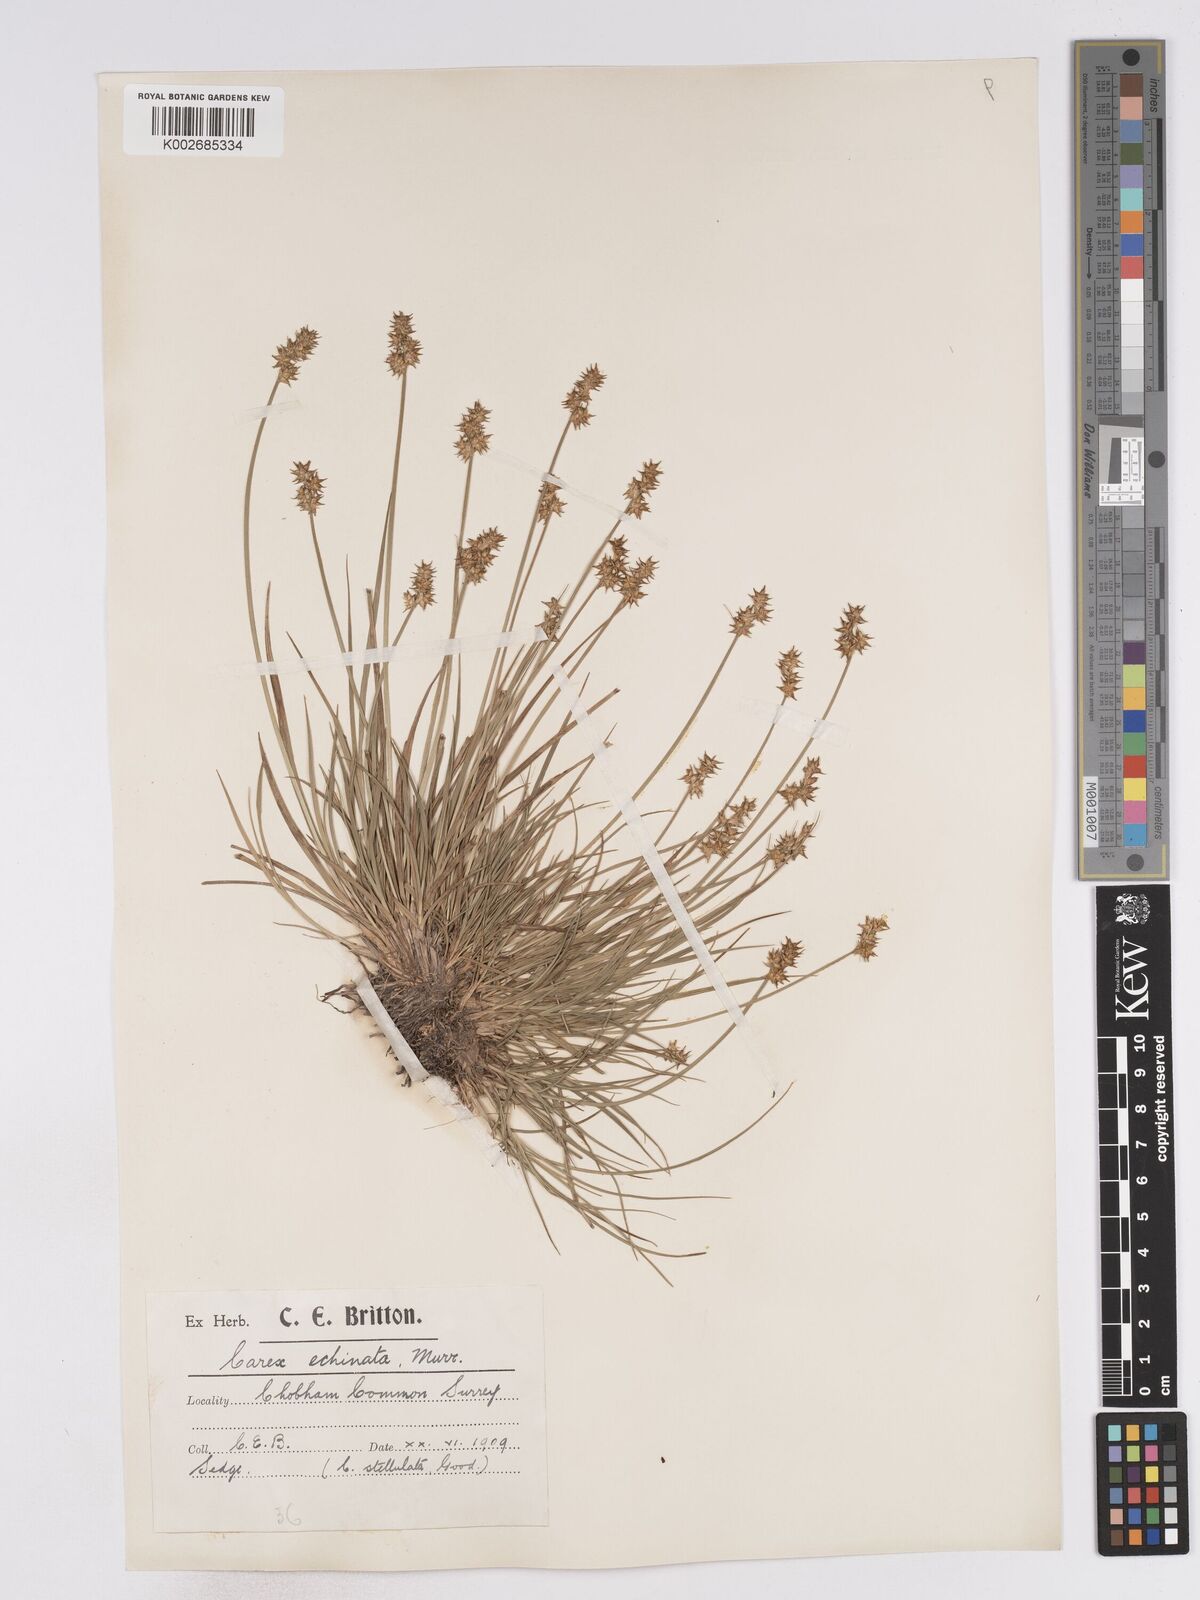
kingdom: Plantae
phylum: Tracheophyta
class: Liliopsida
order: Poales
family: Cyperaceae
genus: Carex
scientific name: Carex echinata
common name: Star sedge
